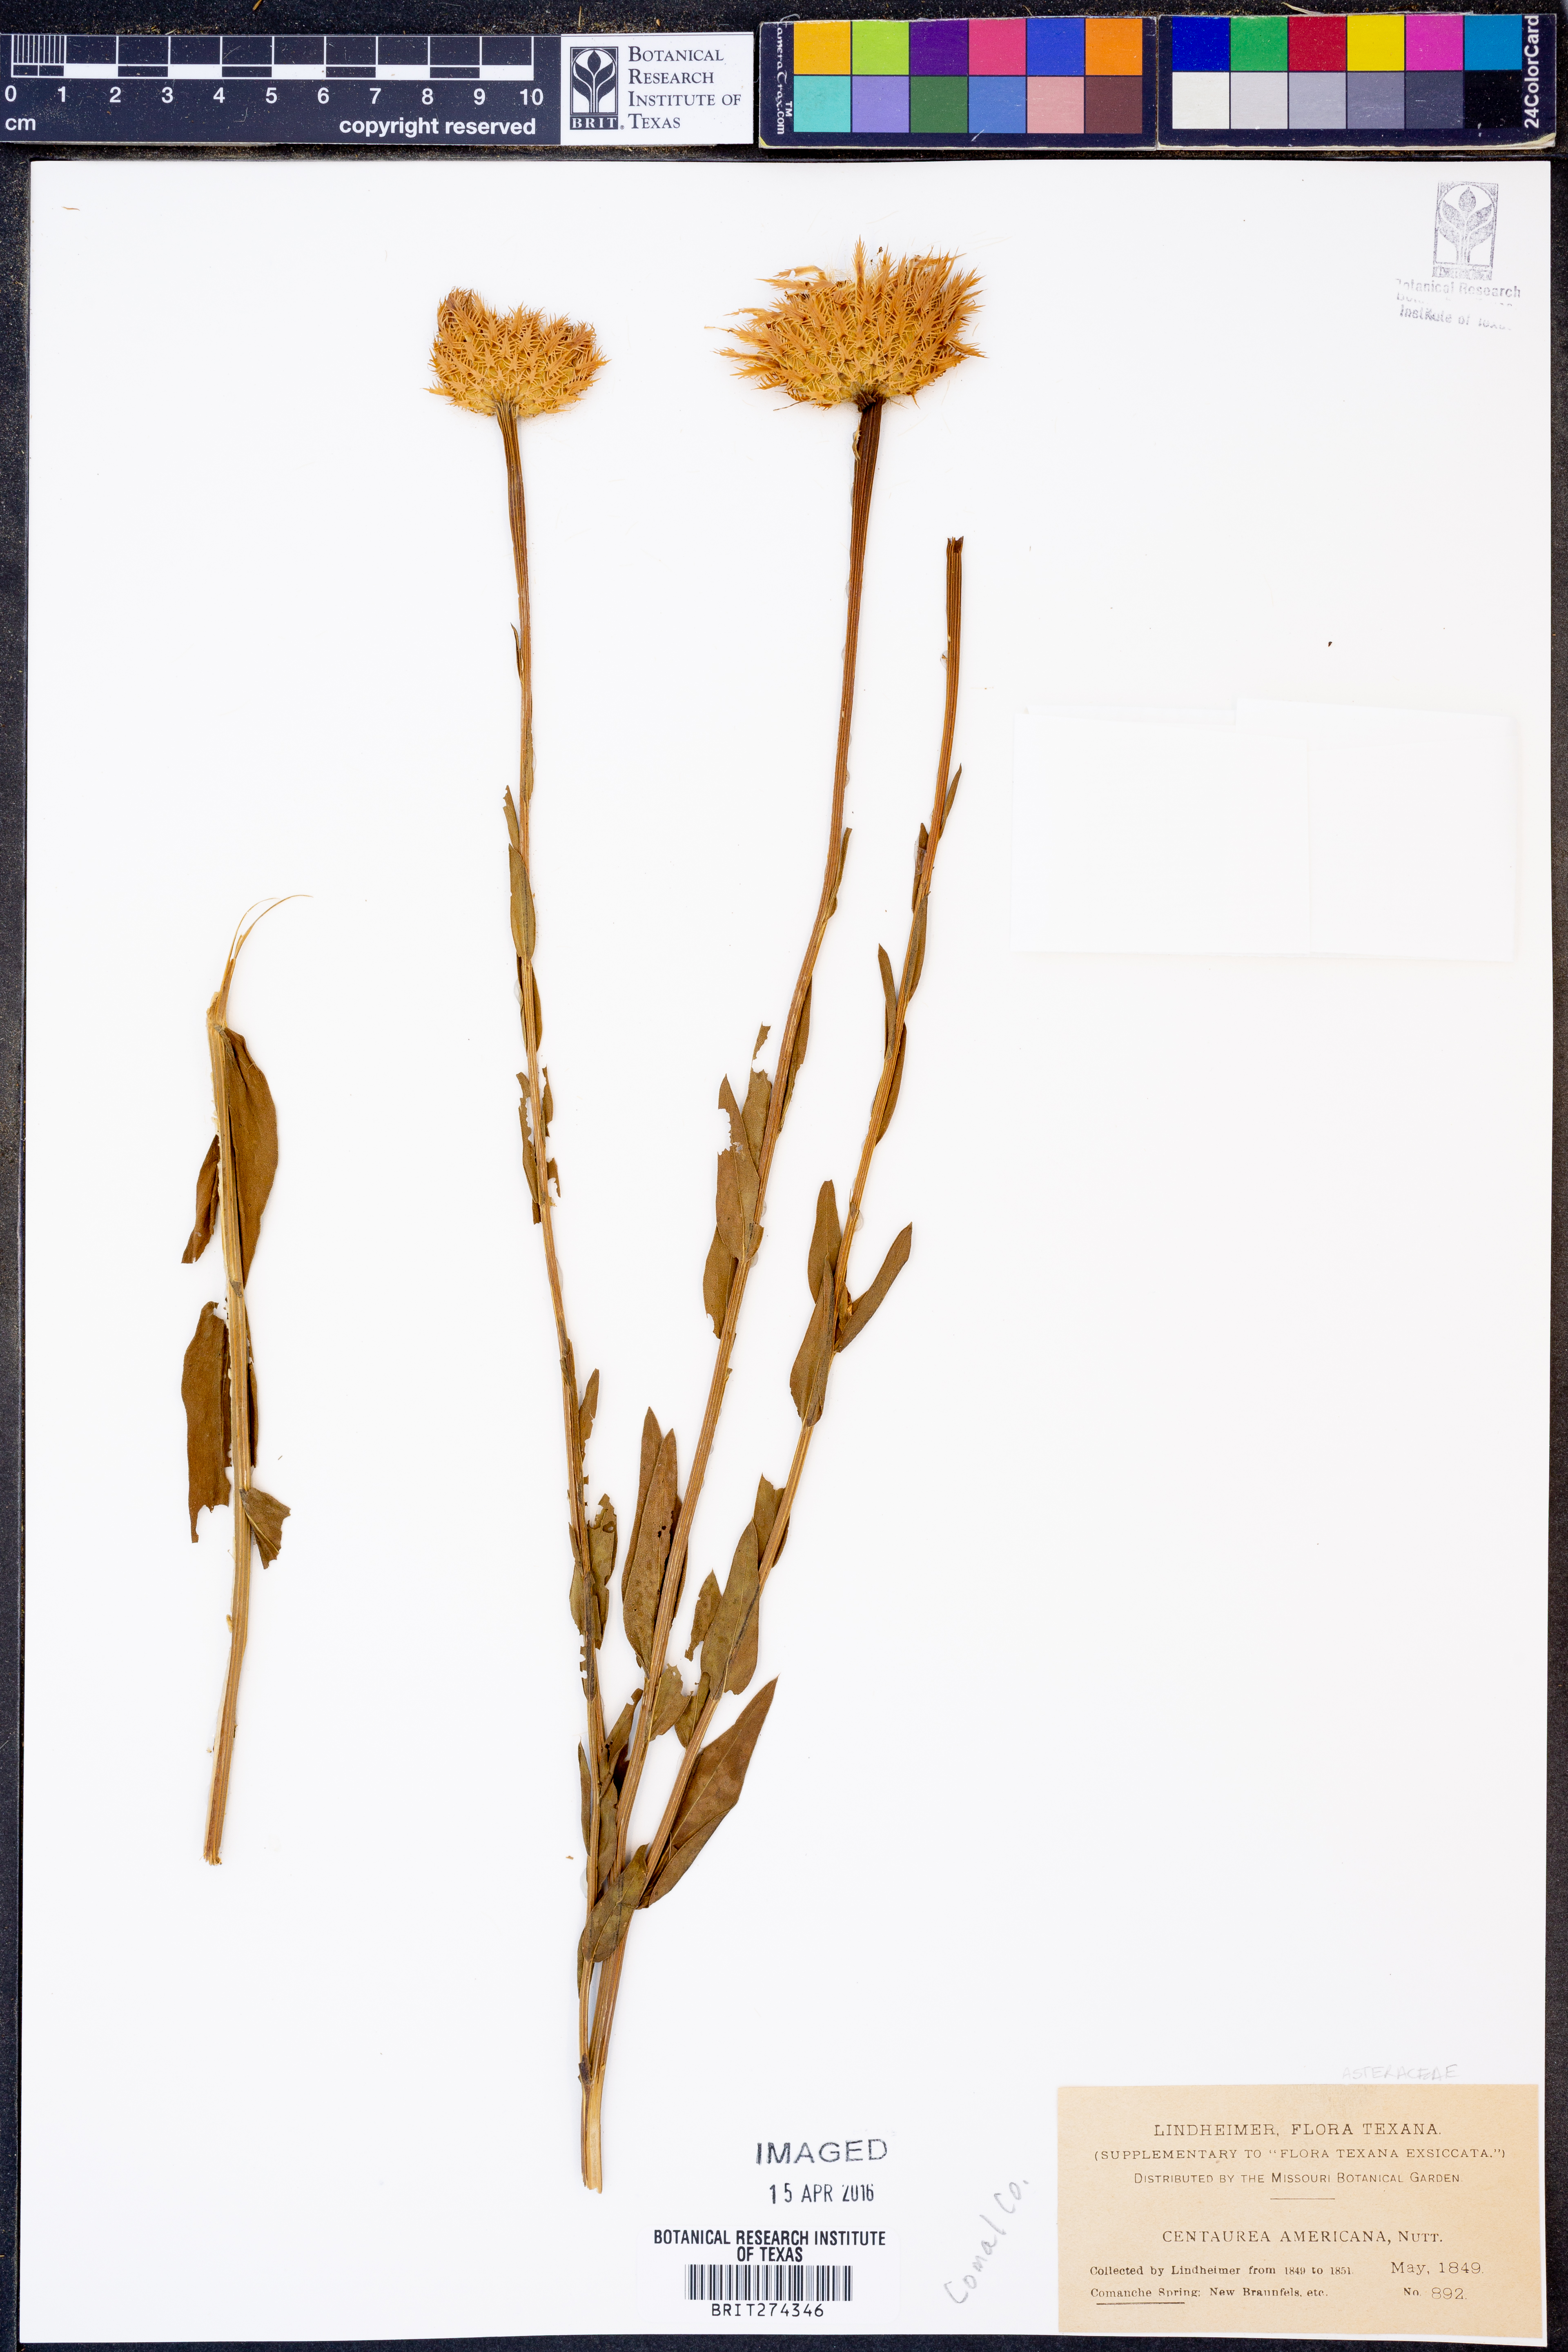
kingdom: Plantae
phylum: Tracheophyta
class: Magnoliopsida
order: Asterales
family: Asteraceae
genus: Plectocephalus
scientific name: Plectocephalus americanus
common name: American basket-flower
